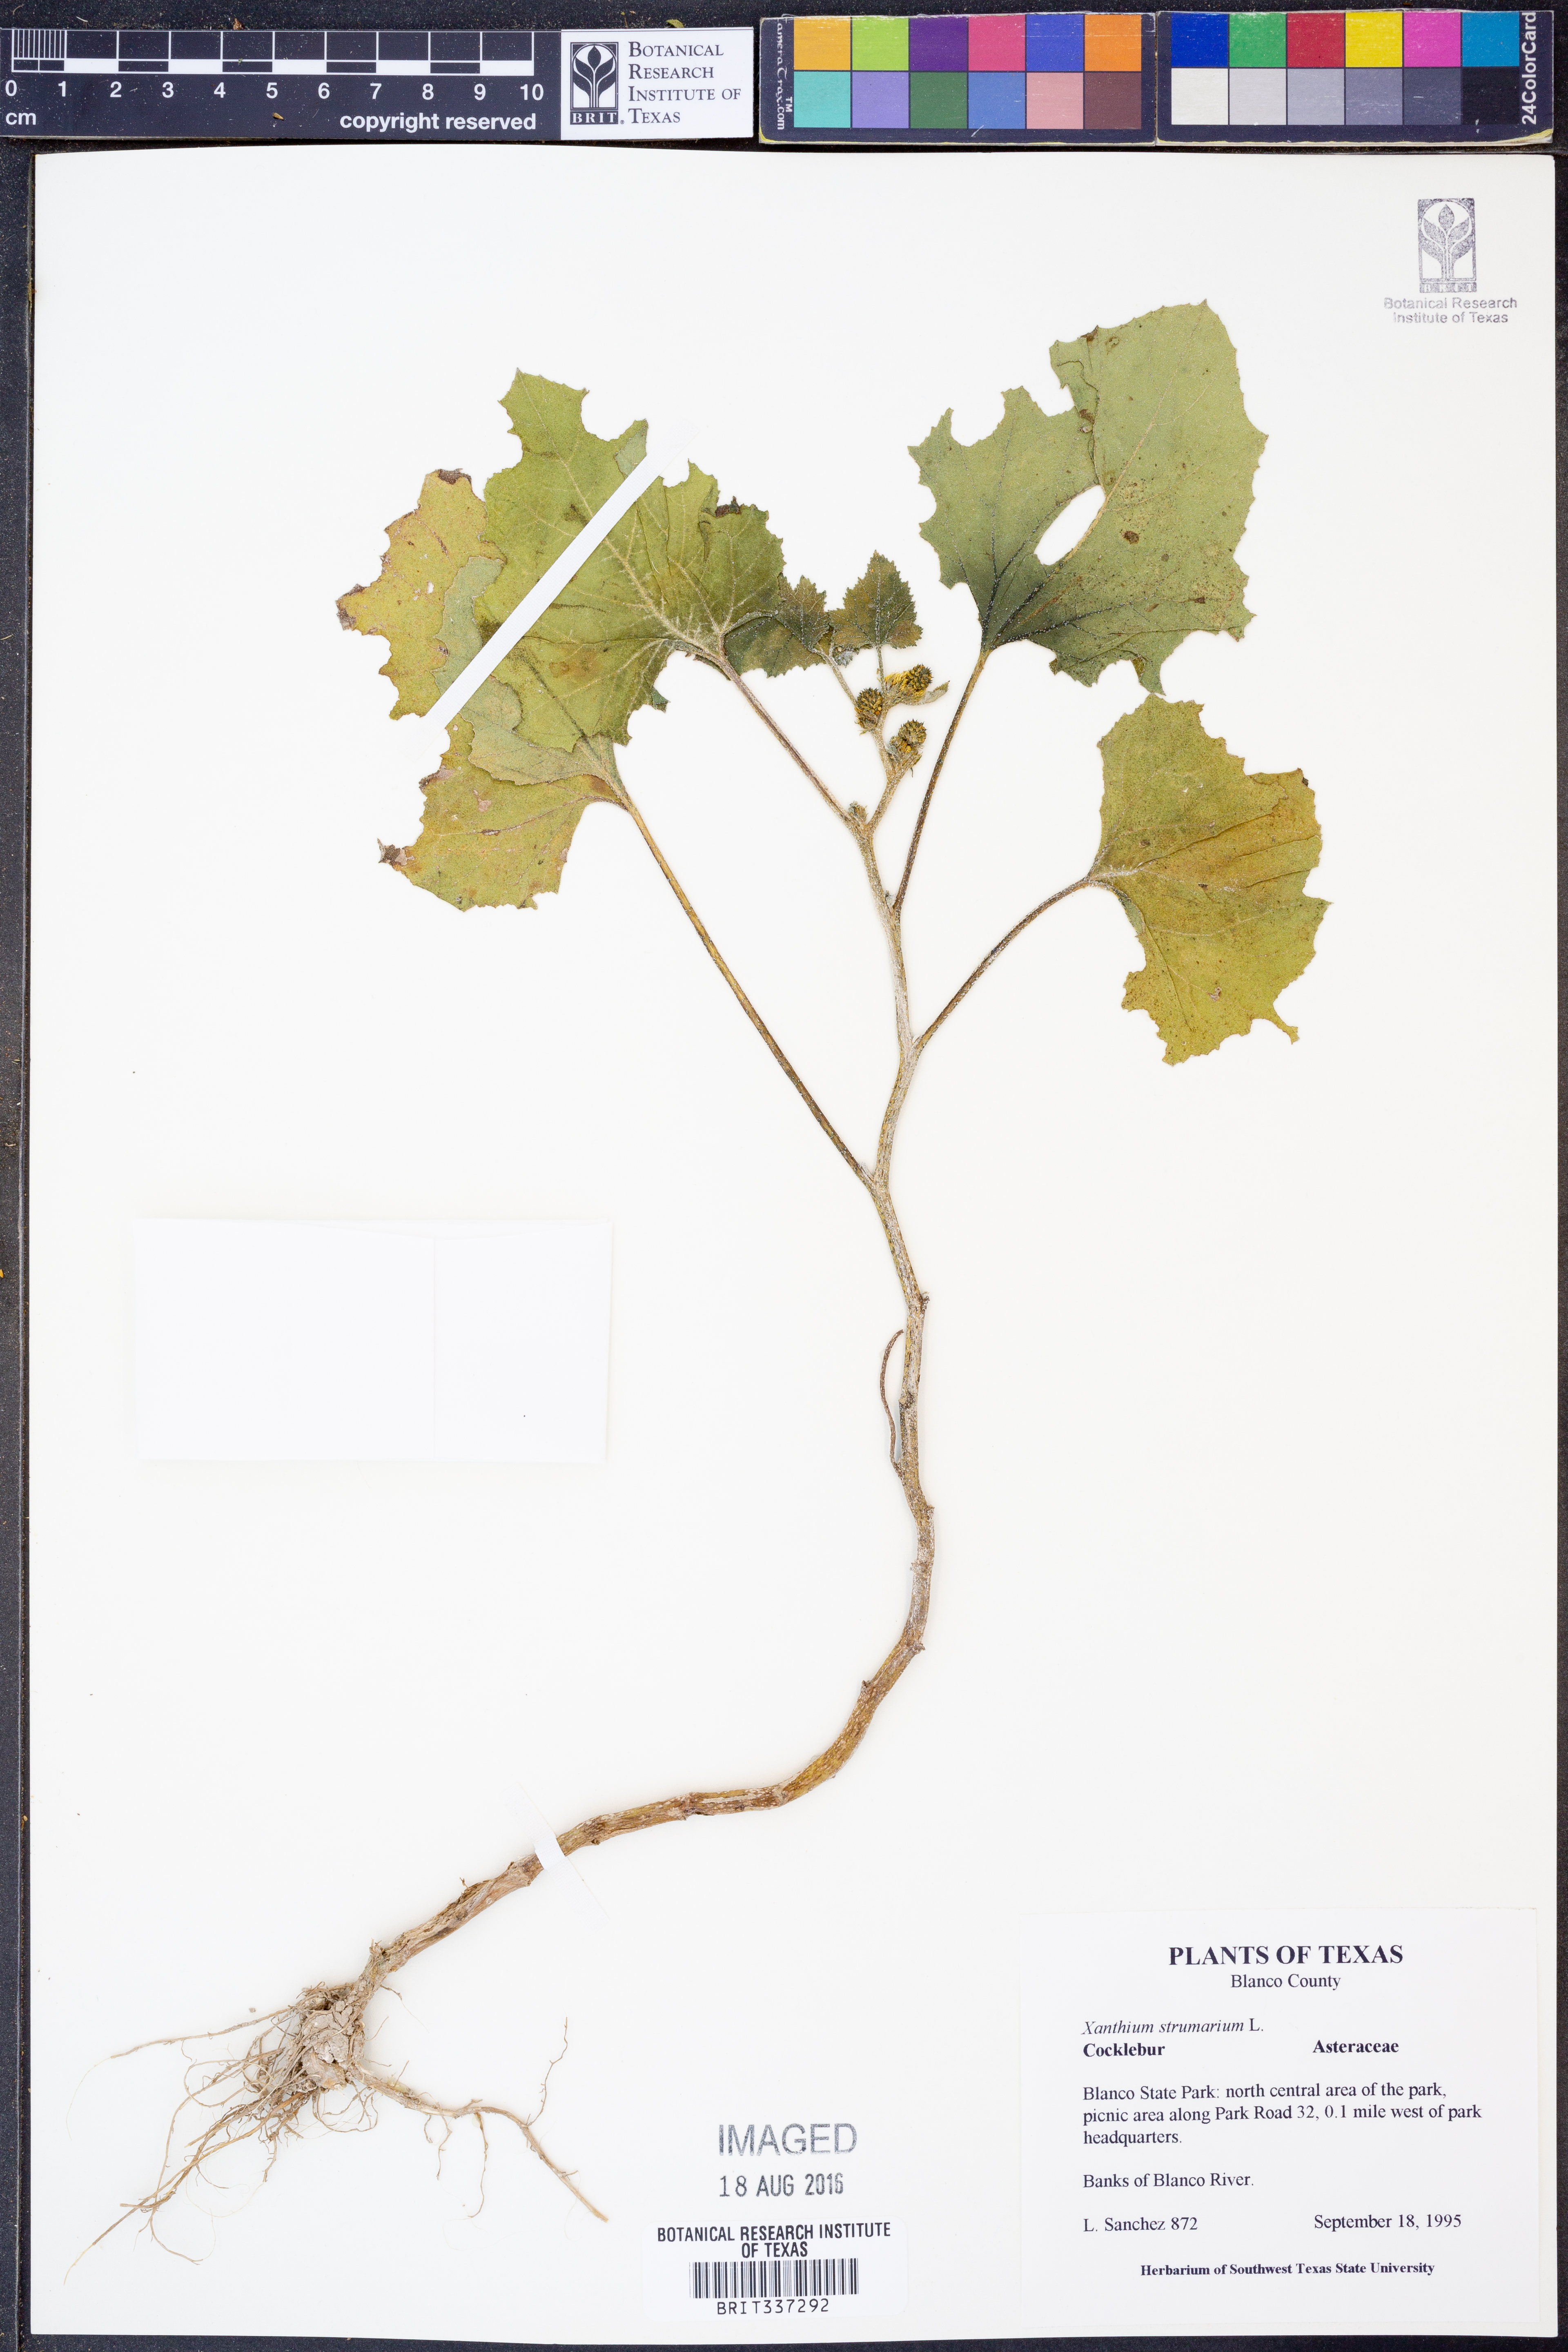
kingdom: Plantae
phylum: Tracheophyta
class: Magnoliopsida
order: Asterales
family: Asteraceae
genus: Xanthium
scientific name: Xanthium strumarium
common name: Rough cocklebur
